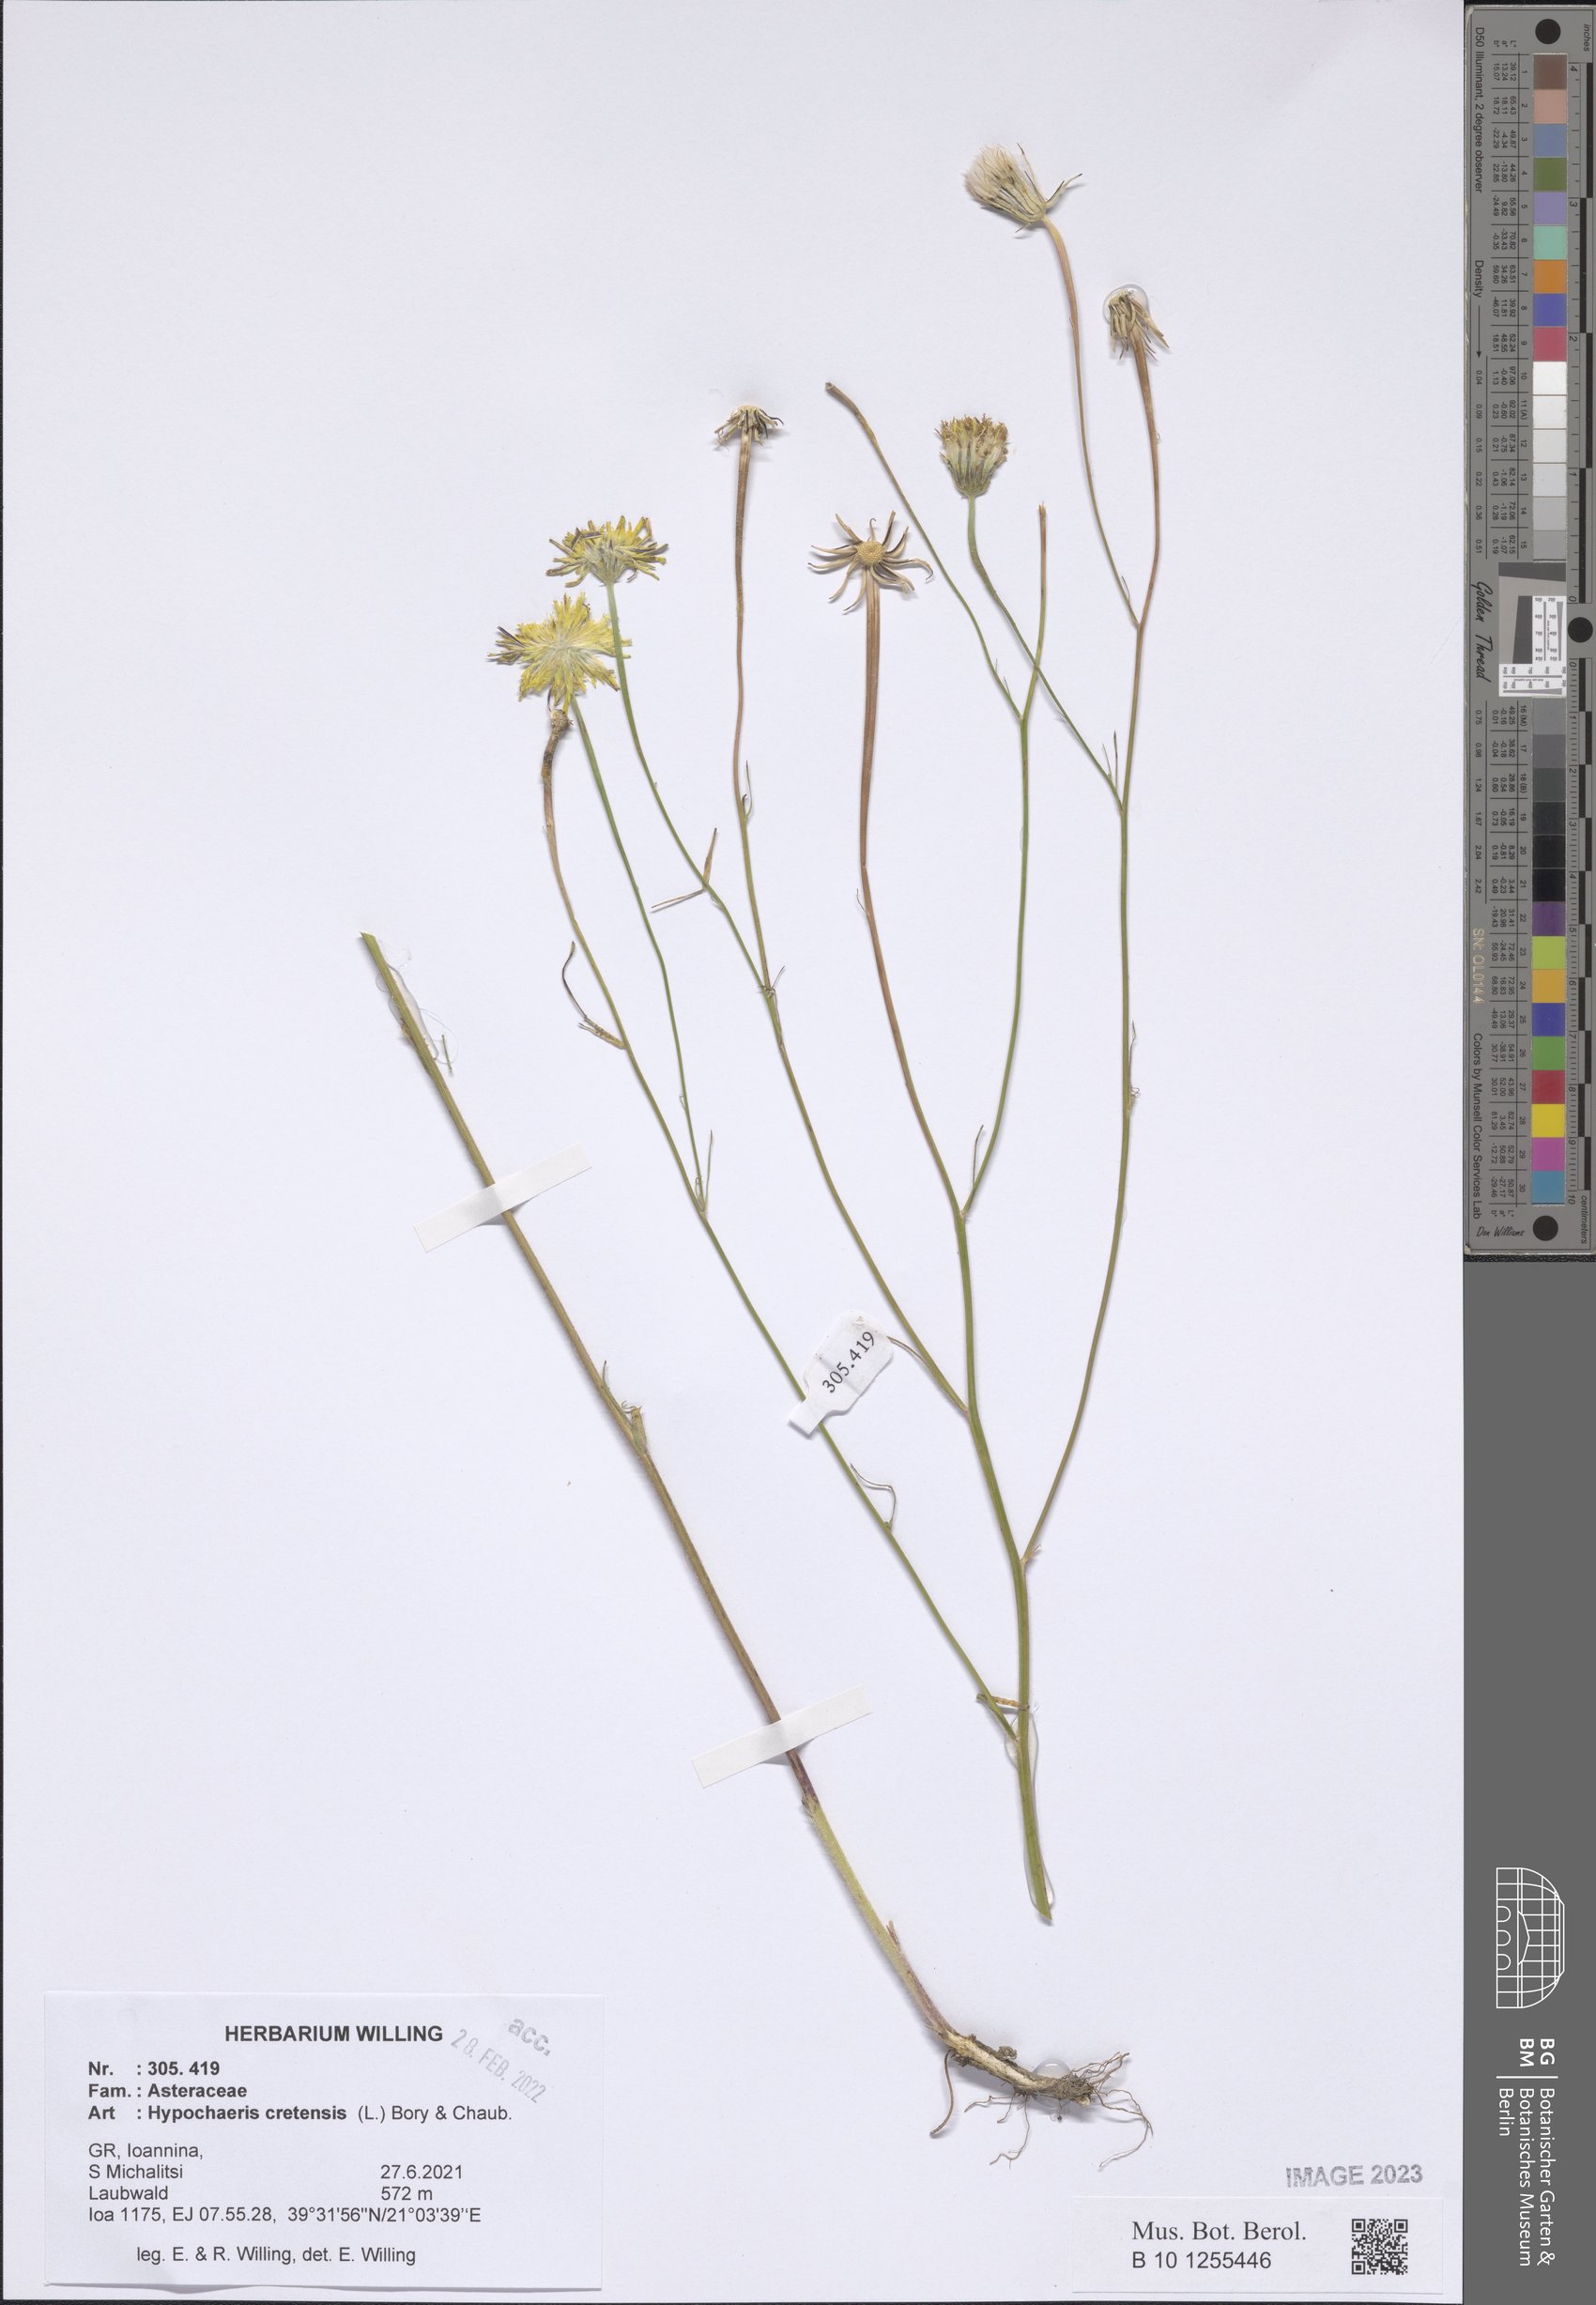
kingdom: Plantae
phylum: Tracheophyta
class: Magnoliopsida
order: Asterales
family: Asteraceae
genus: Hypochaeris
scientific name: Hypochaeris cretensis
